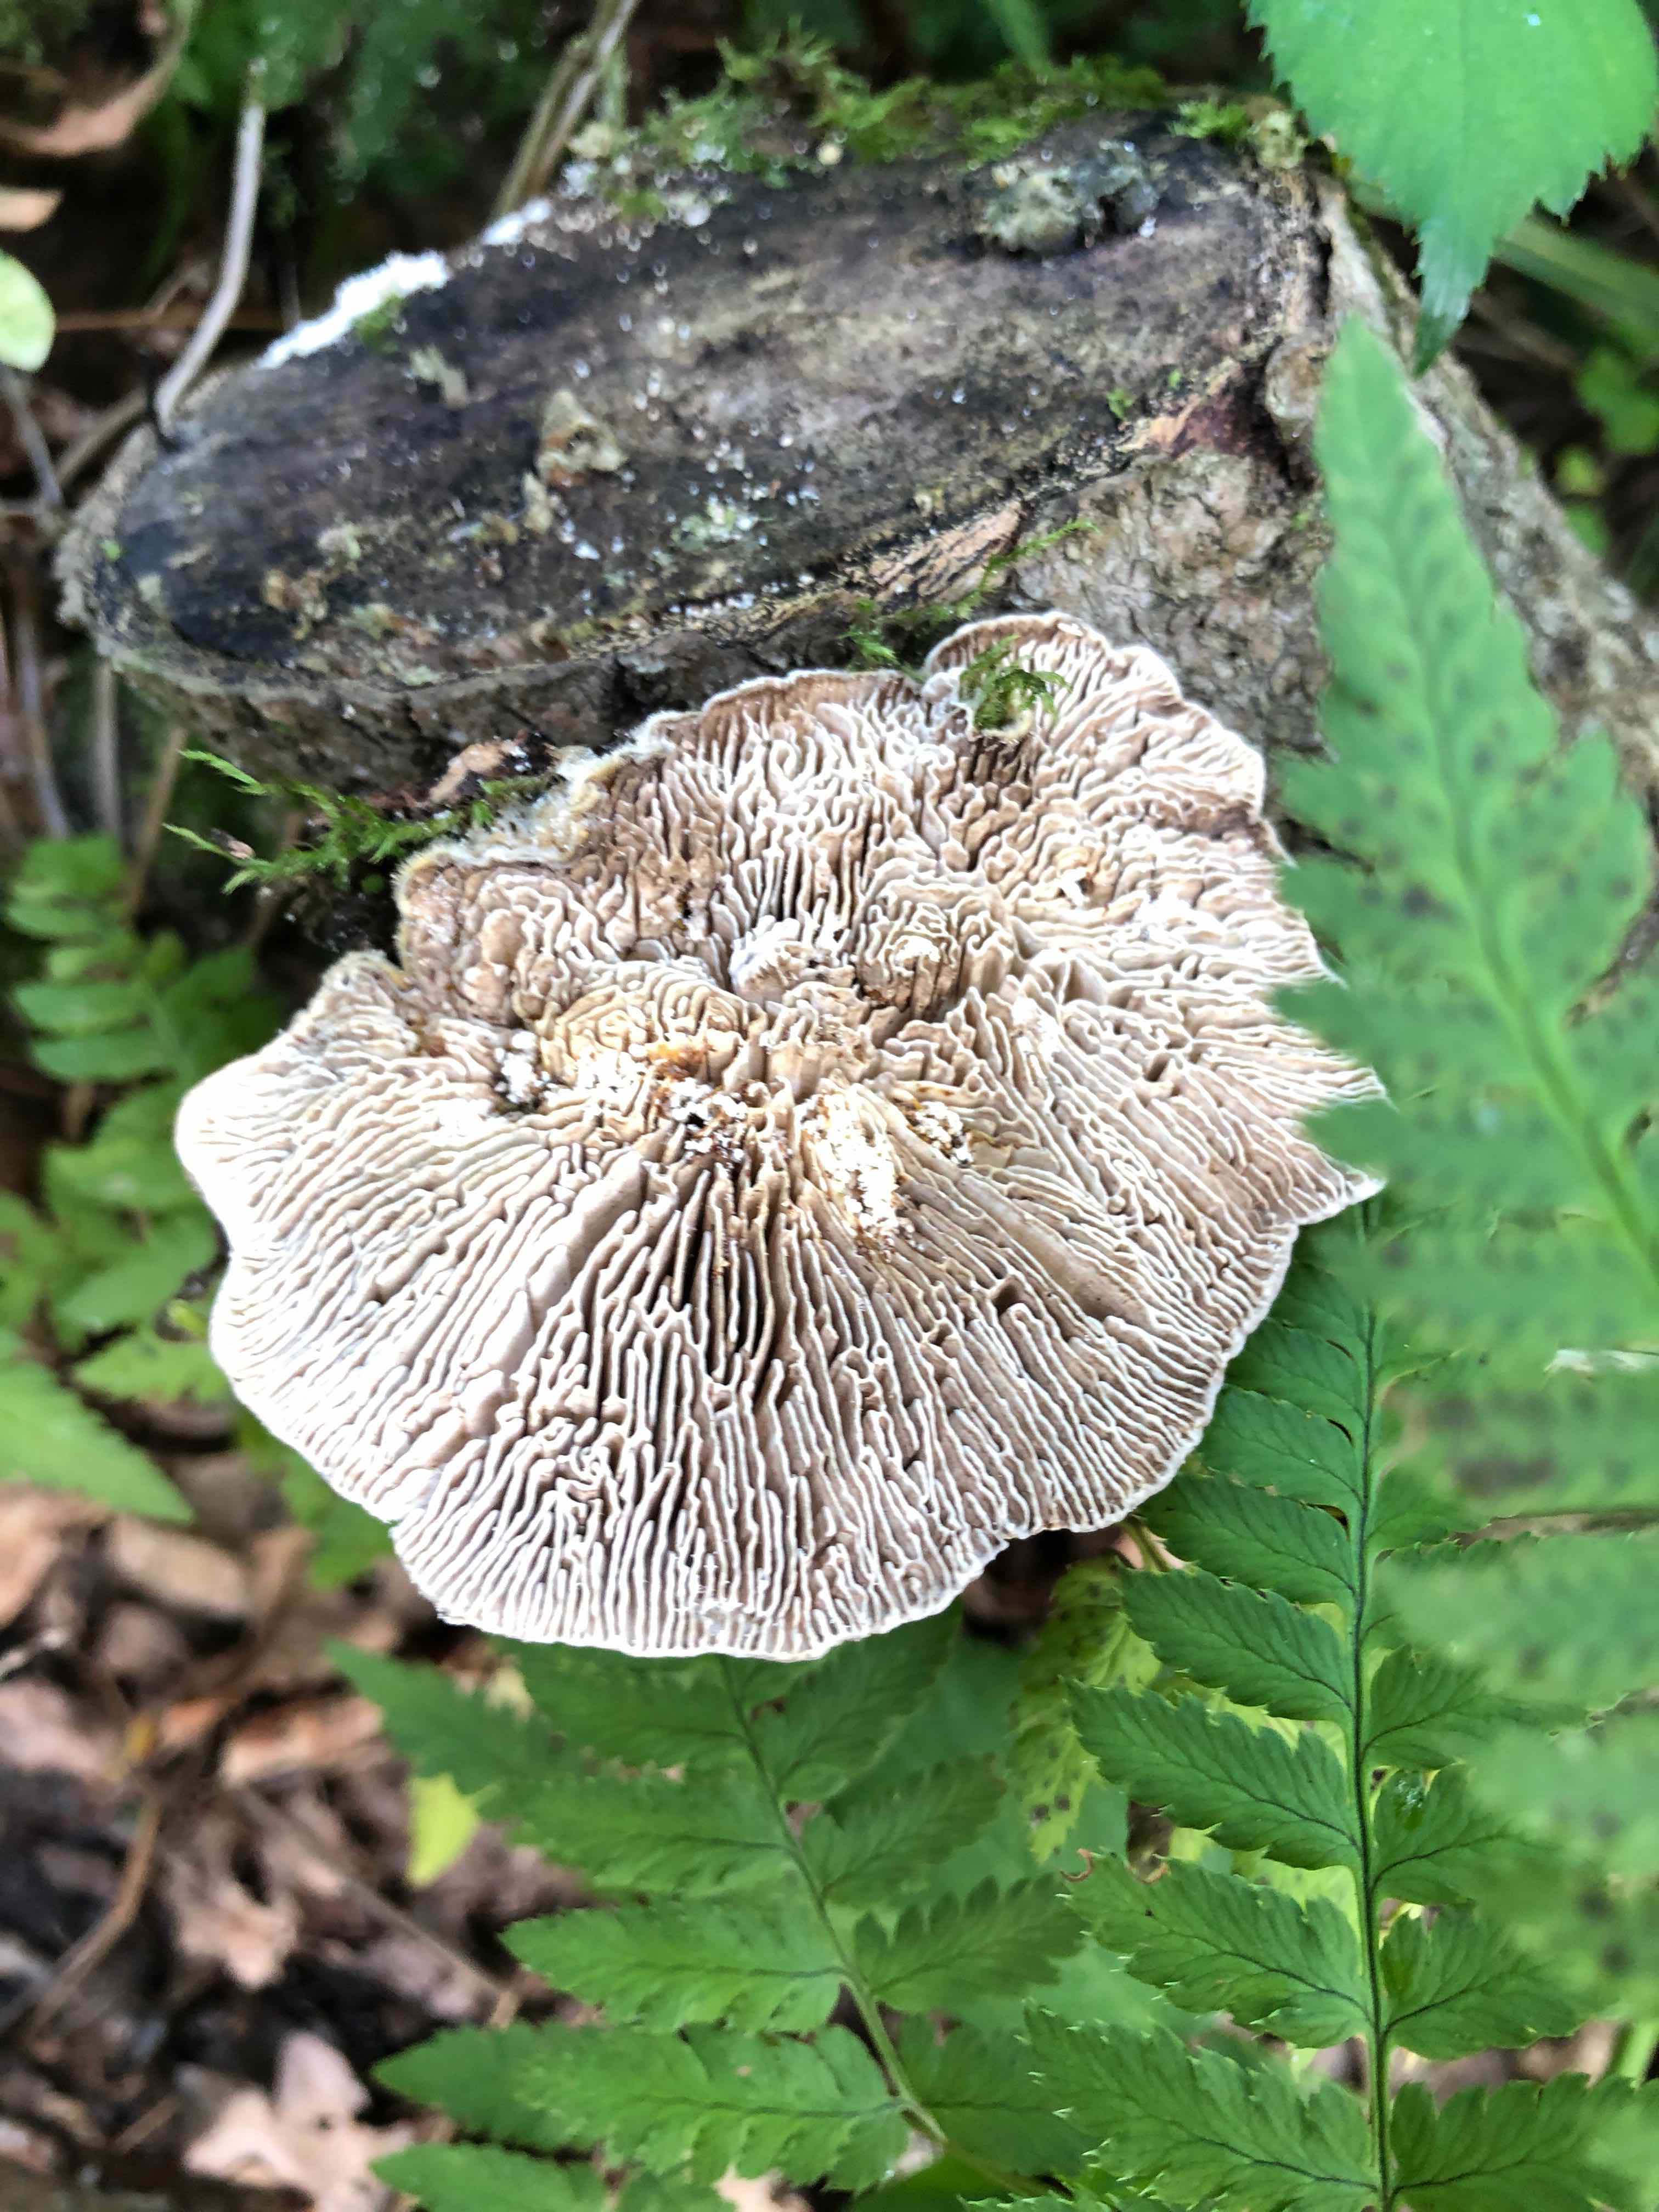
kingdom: Fungi
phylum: Basidiomycota
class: Agaricomycetes
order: Polyporales
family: Fomitopsidaceae
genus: Daedalea
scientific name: Daedalea quercina
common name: ege-labyrintsvamp
